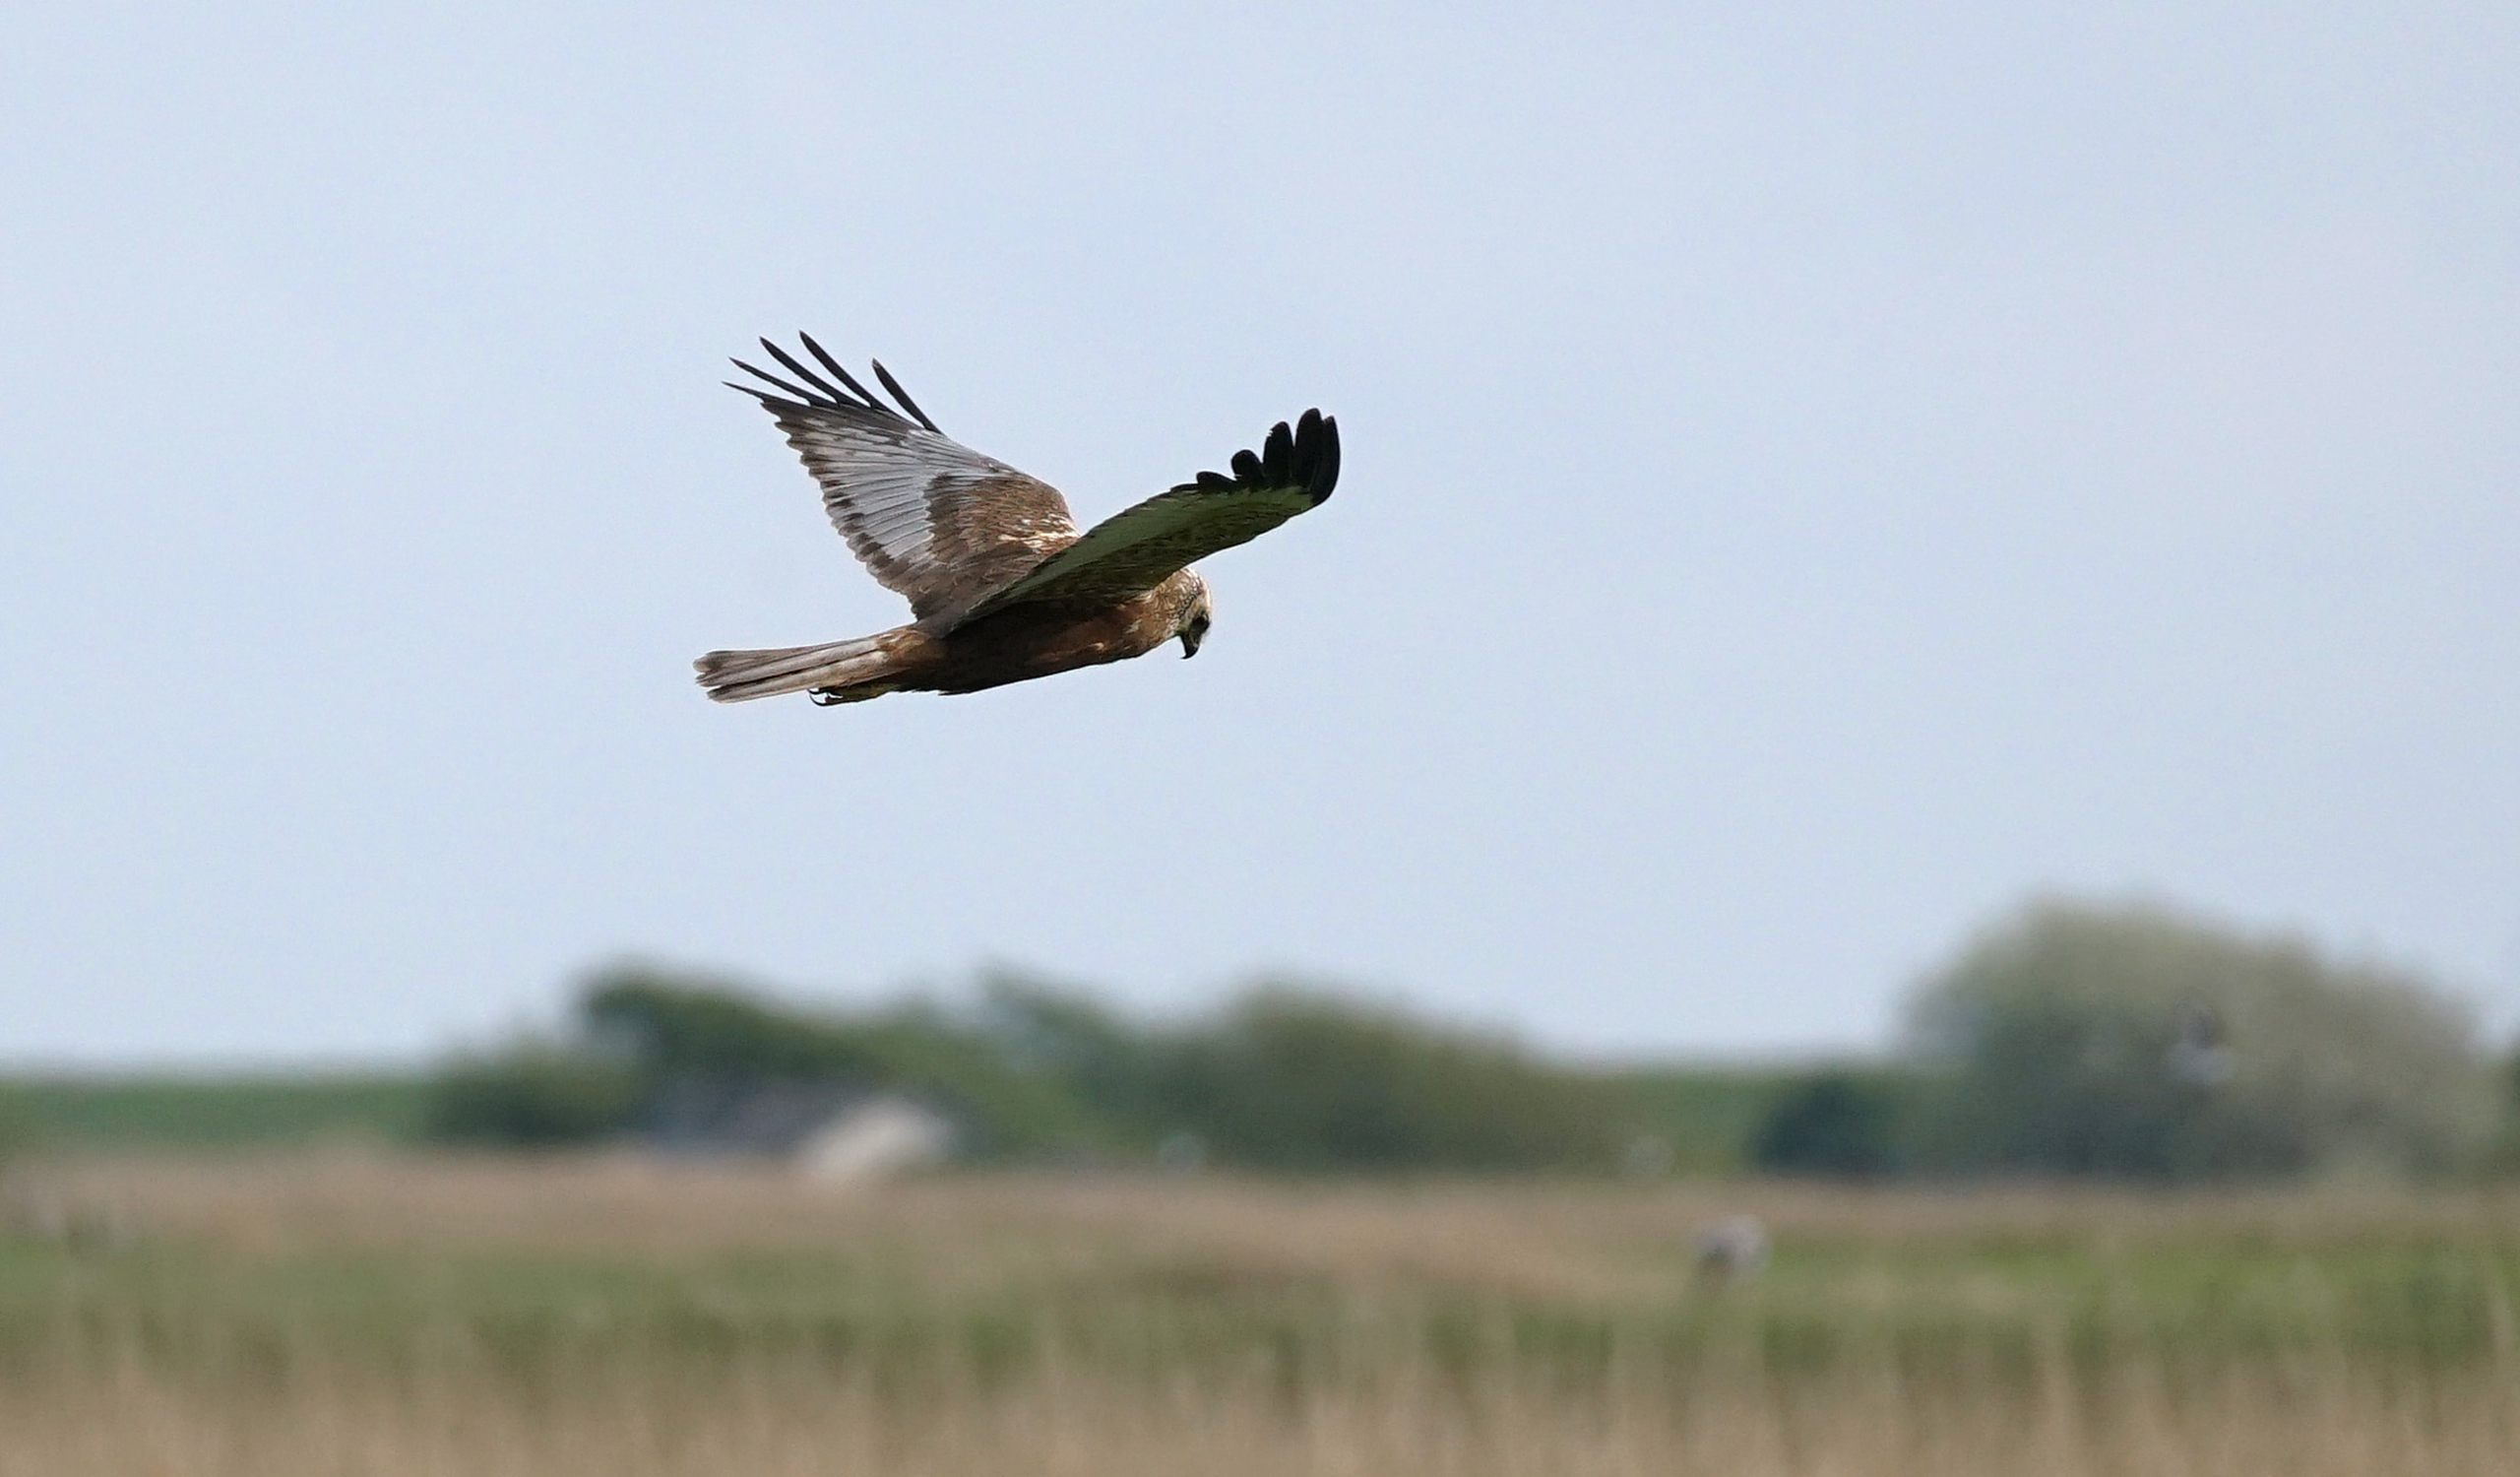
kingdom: Animalia
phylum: Chordata
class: Aves
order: Accipitriformes
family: Accipitridae
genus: Circus
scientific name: Circus aeruginosus
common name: Rørhøg
